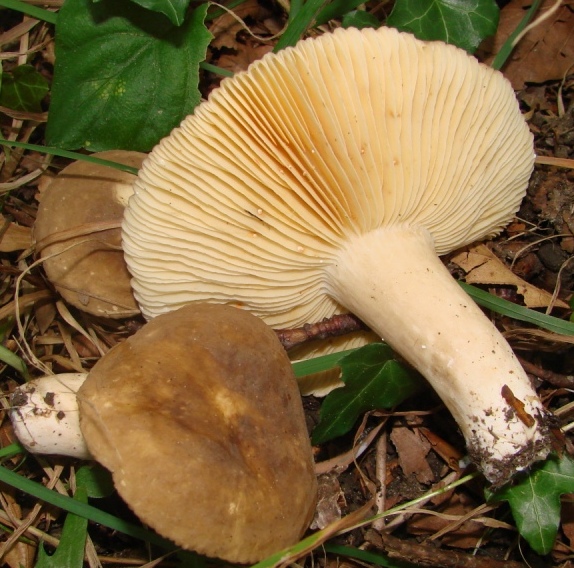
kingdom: Fungi
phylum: Basidiomycota
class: Agaricomycetes
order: Russulales
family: Russulaceae
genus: Lactarius
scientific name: Lactarius pterosporus
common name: vingesporet mælkehat
